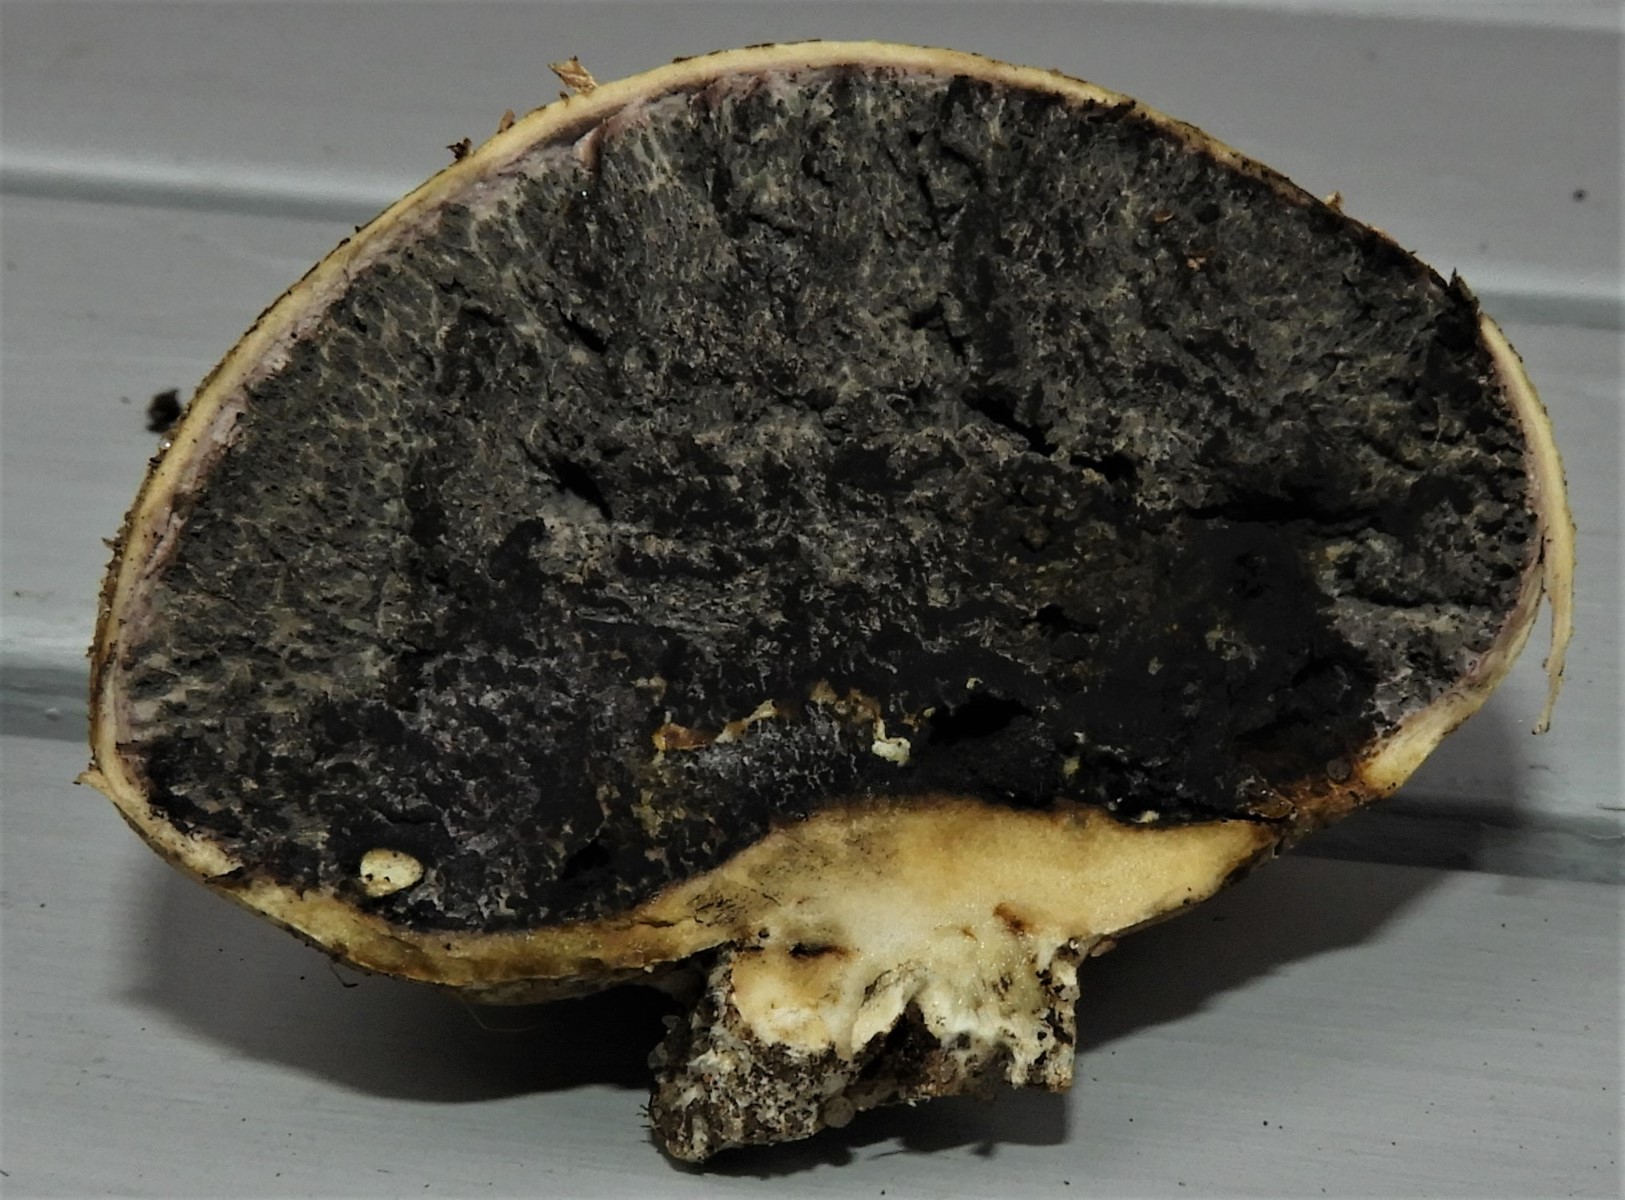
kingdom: Fungi
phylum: Basidiomycota
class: Agaricomycetes
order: Boletales
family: Sclerodermataceae
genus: Scleroderma
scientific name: Scleroderma areolatum
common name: plettet bruskbold
